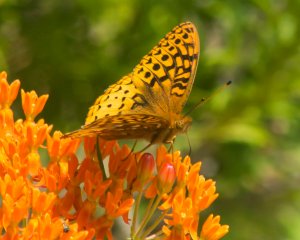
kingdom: Animalia
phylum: Arthropoda
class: Insecta
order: Lepidoptera
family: Nymphalidae
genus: Speyeria
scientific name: Speyeria cybele
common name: Great Spangled Fritillary
